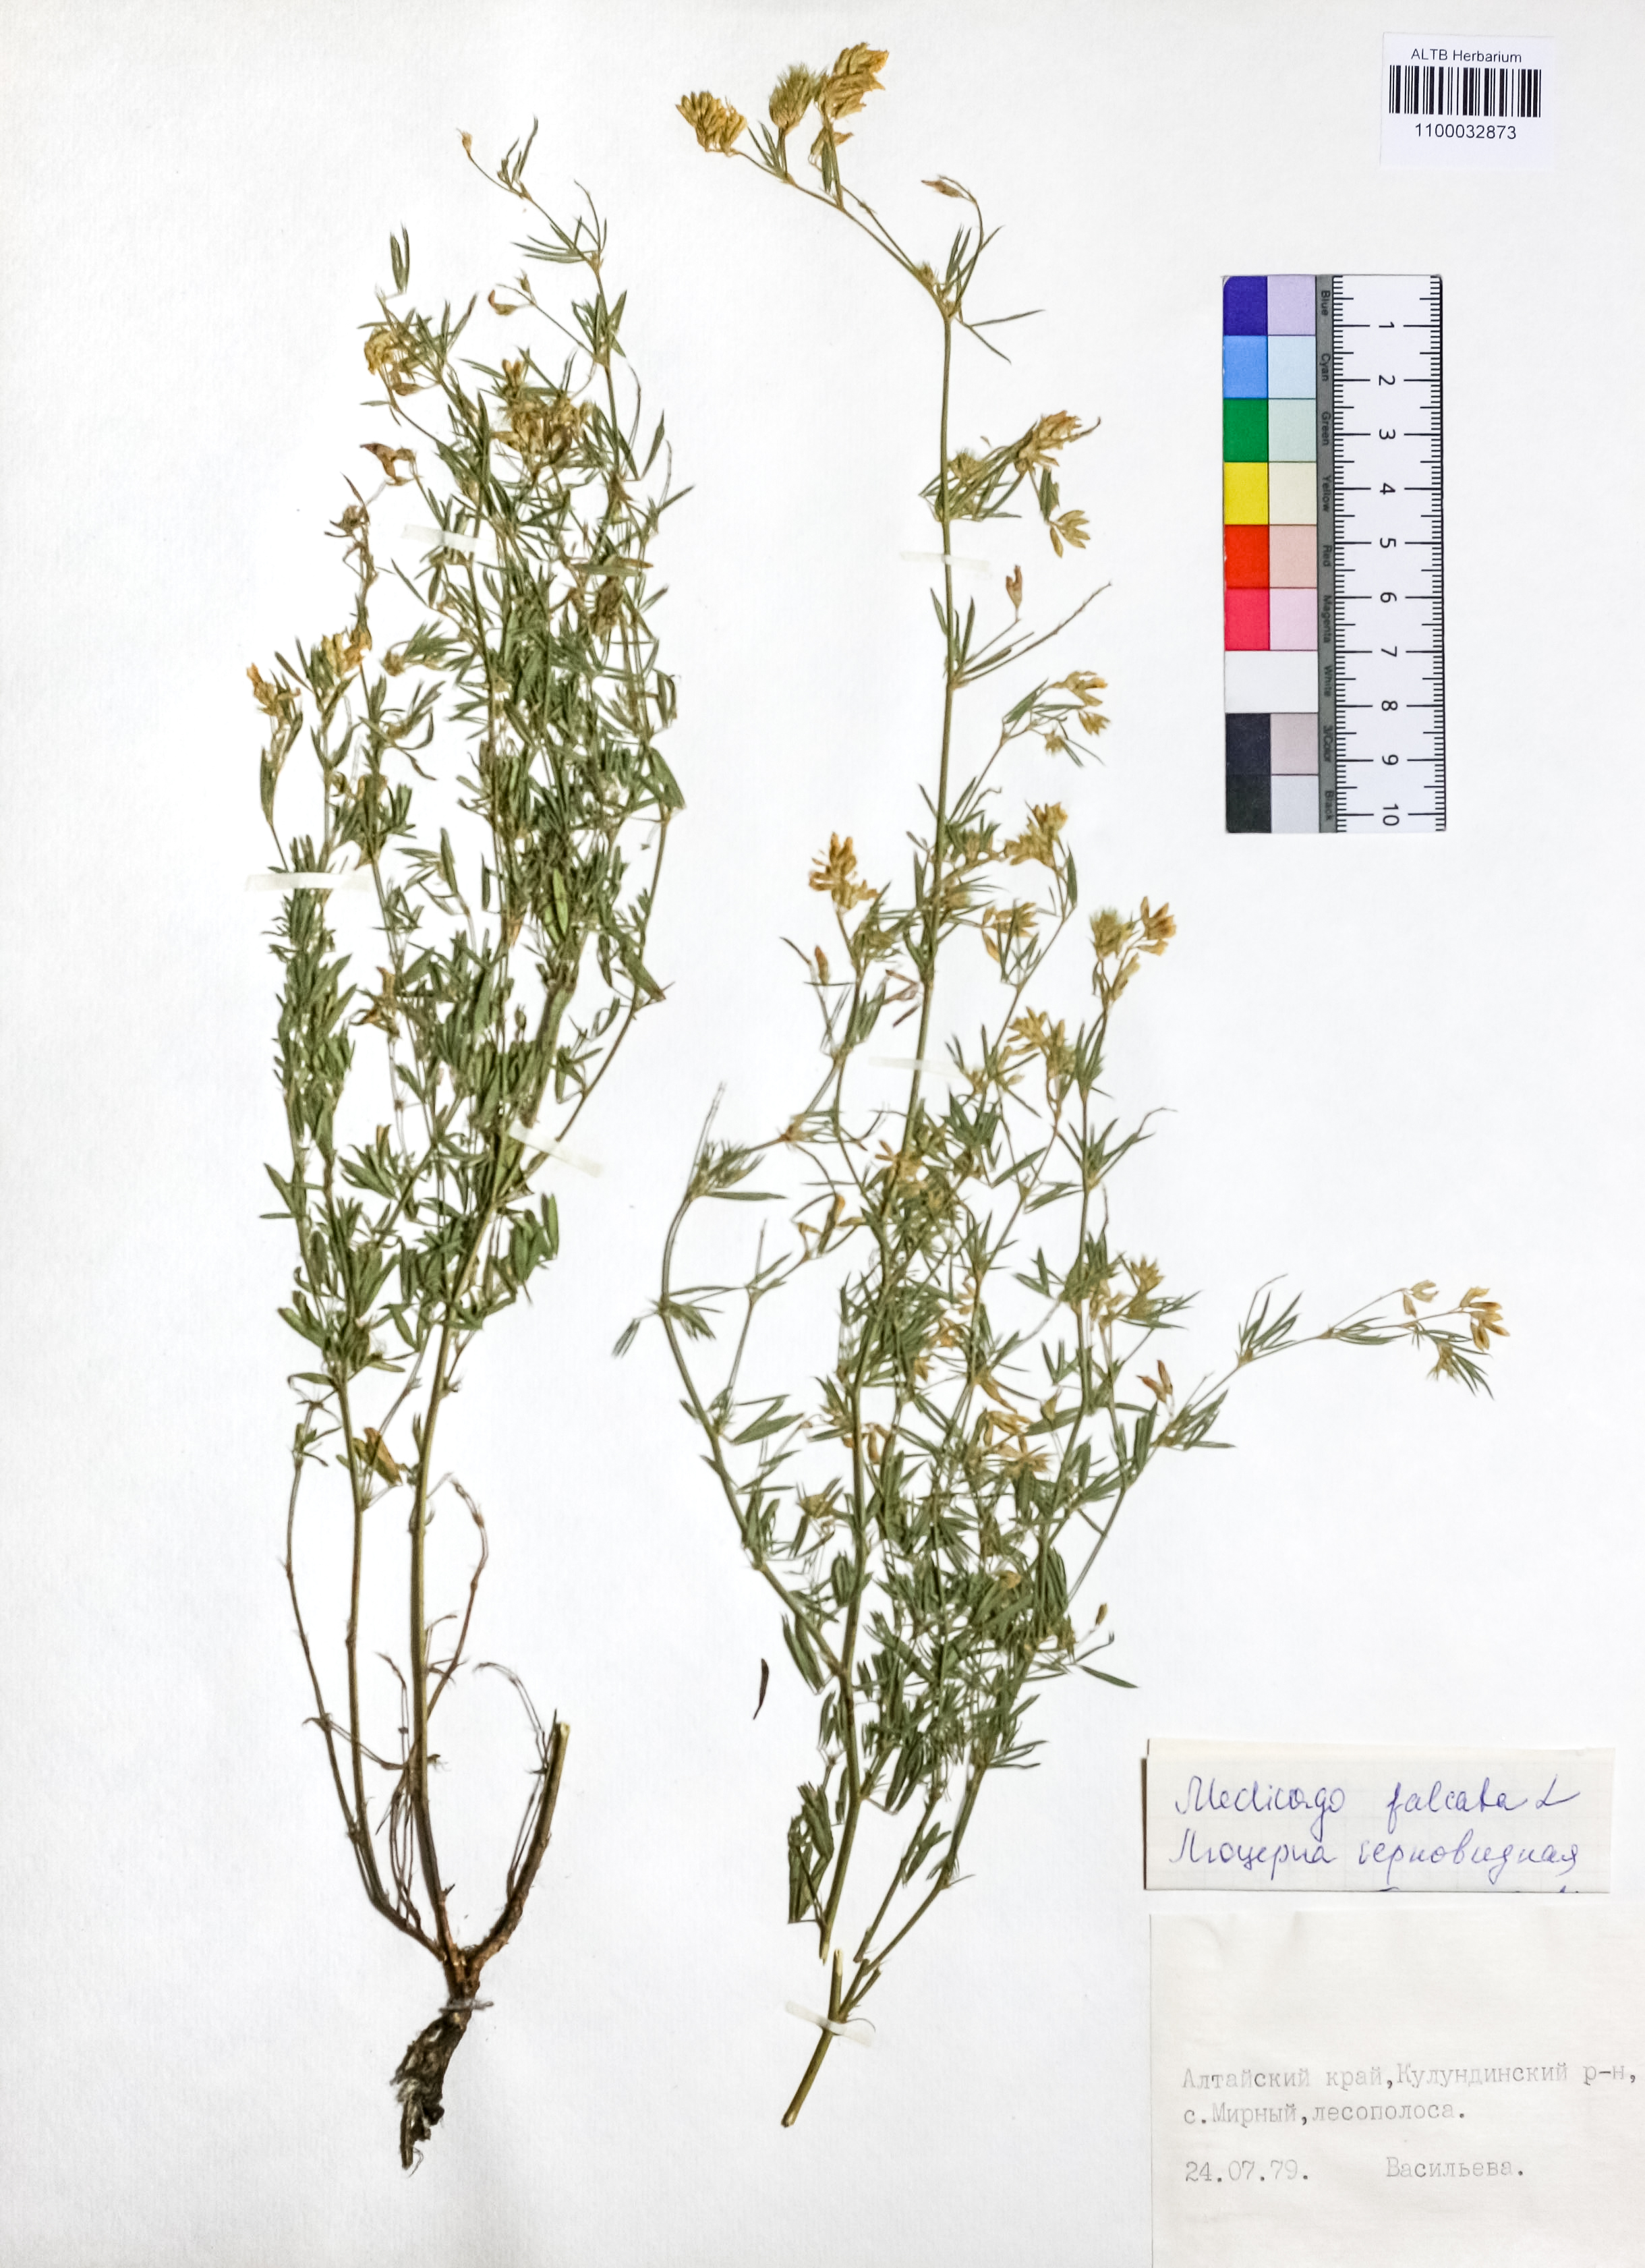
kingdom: Plantae
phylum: Tracheophyta
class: Magnoliopsida
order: Fabales
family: Fabaceae
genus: Medicago
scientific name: Medicago falcata
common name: Sickle medick
